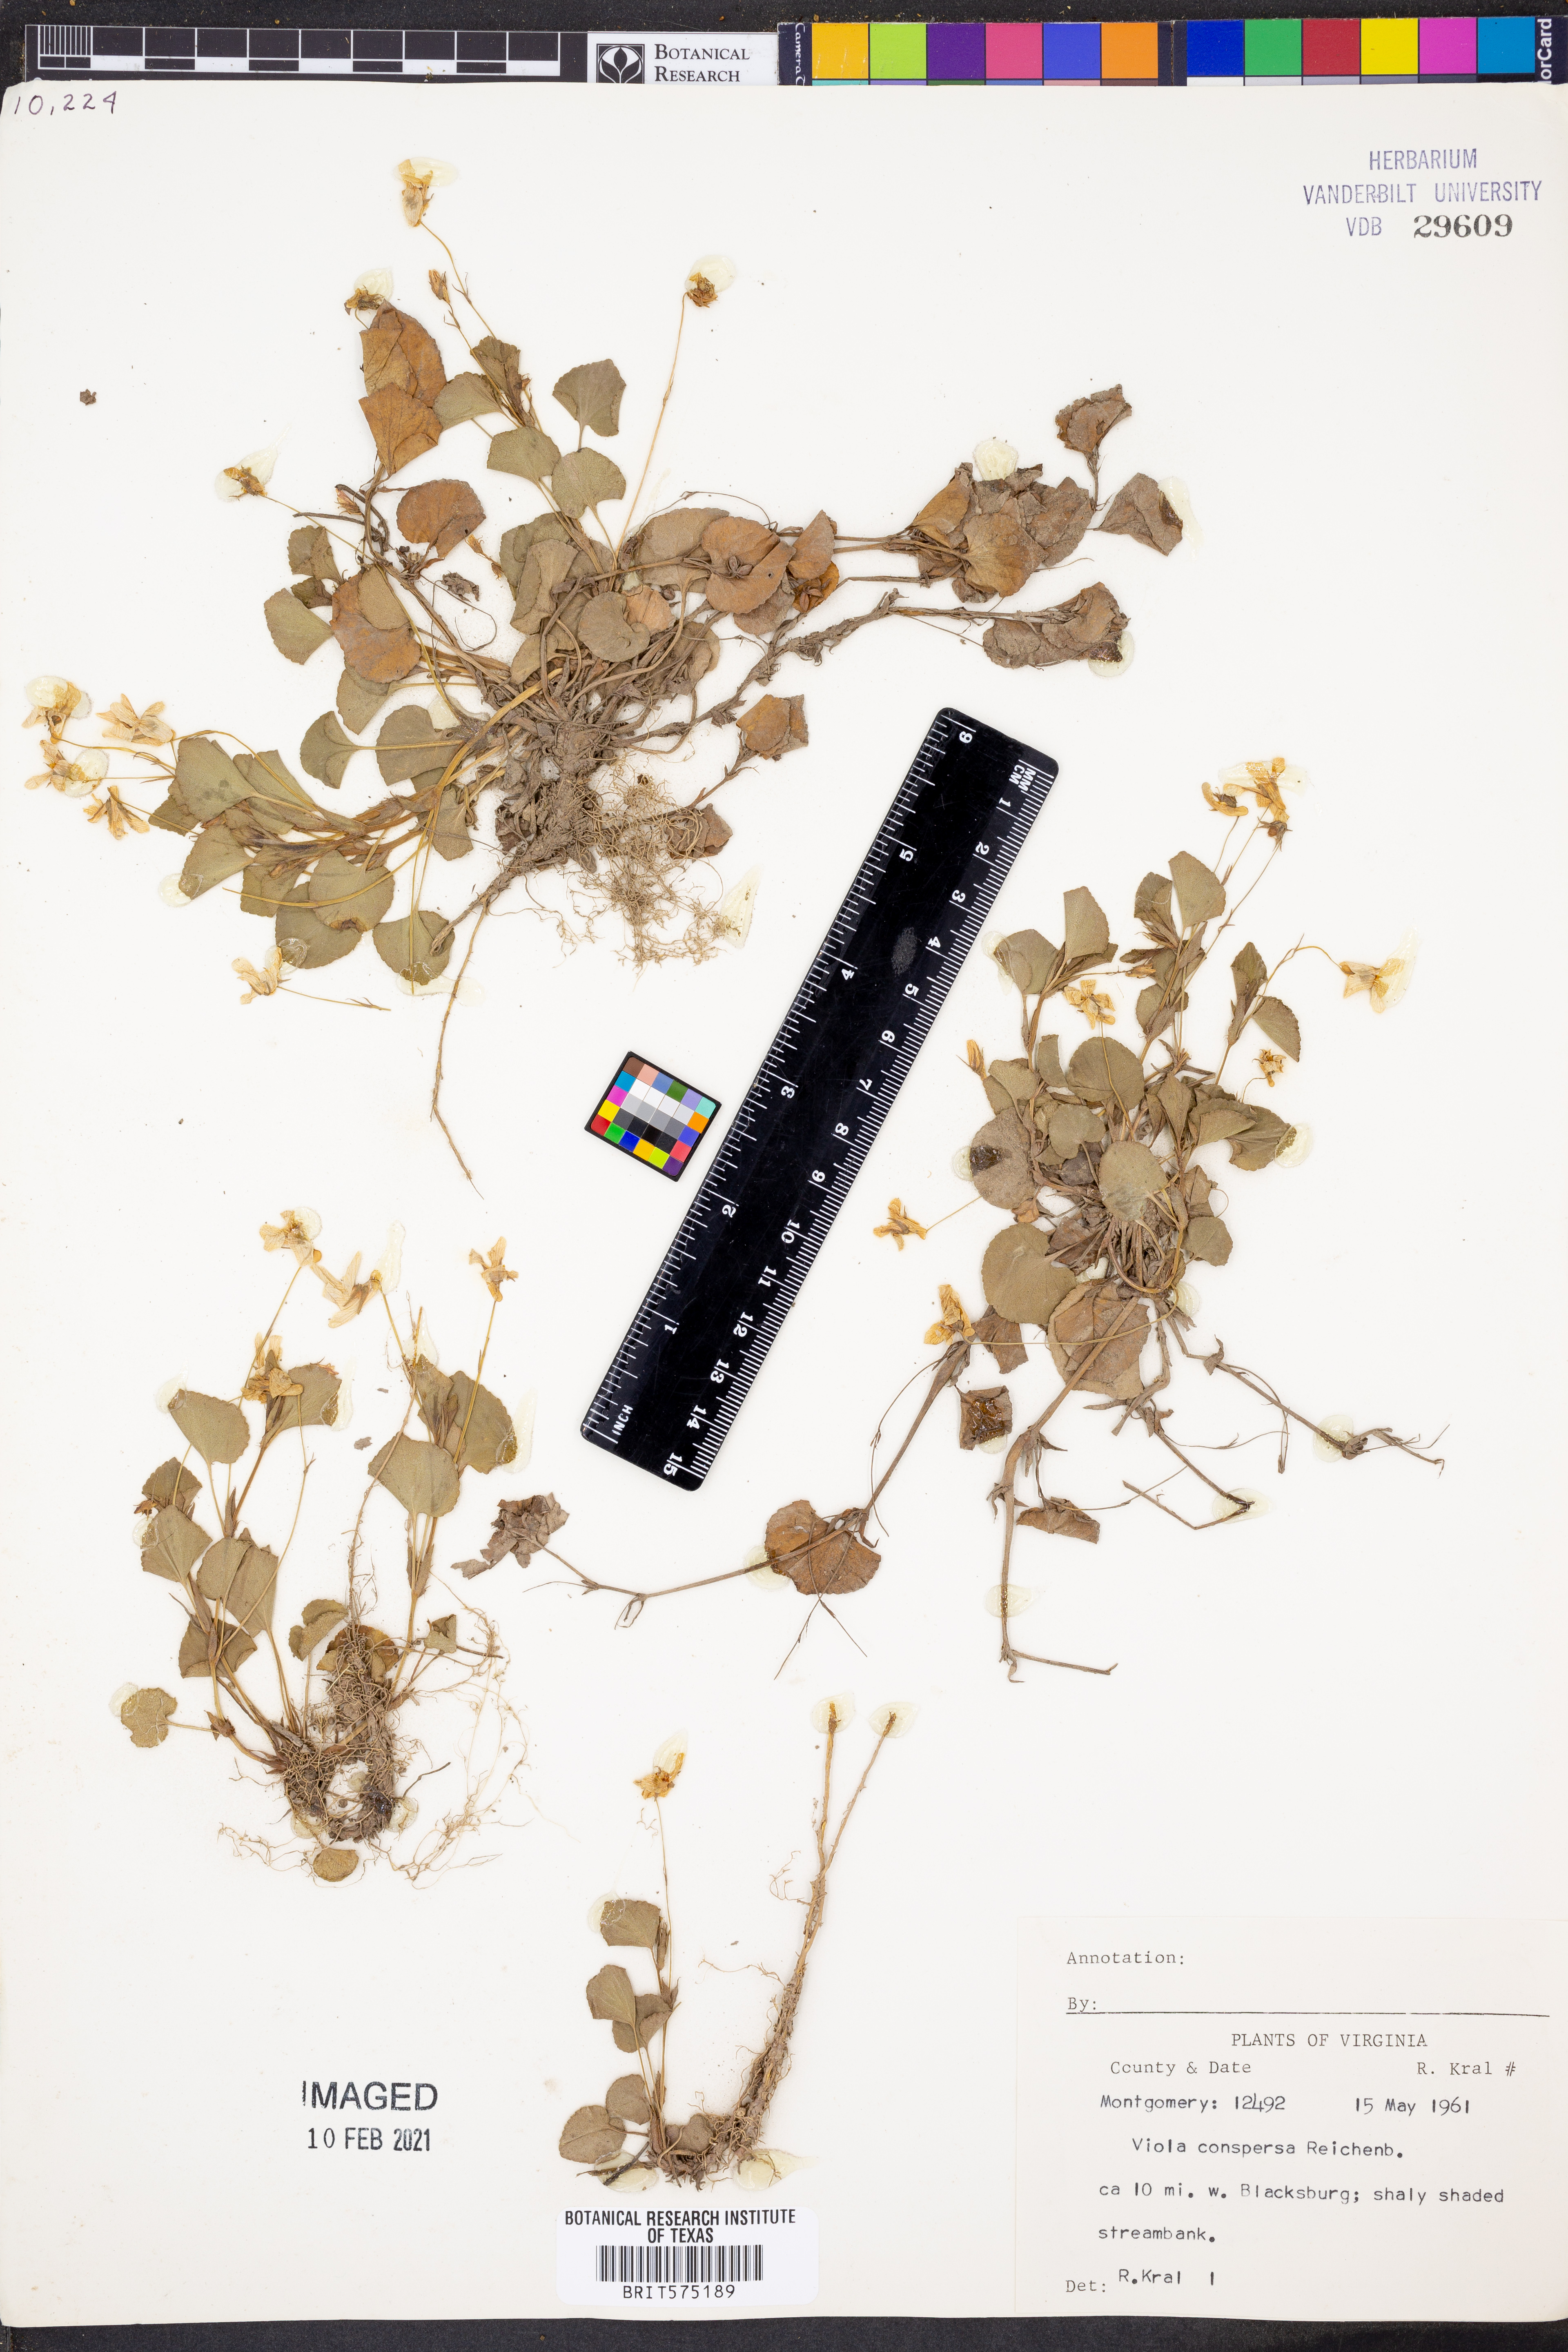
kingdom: Plantae
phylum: Tracheophyta
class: Magnoliopsida
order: Malpighiales
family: Violaceae
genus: Viola
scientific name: Viola labradorica
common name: Labrador violet
